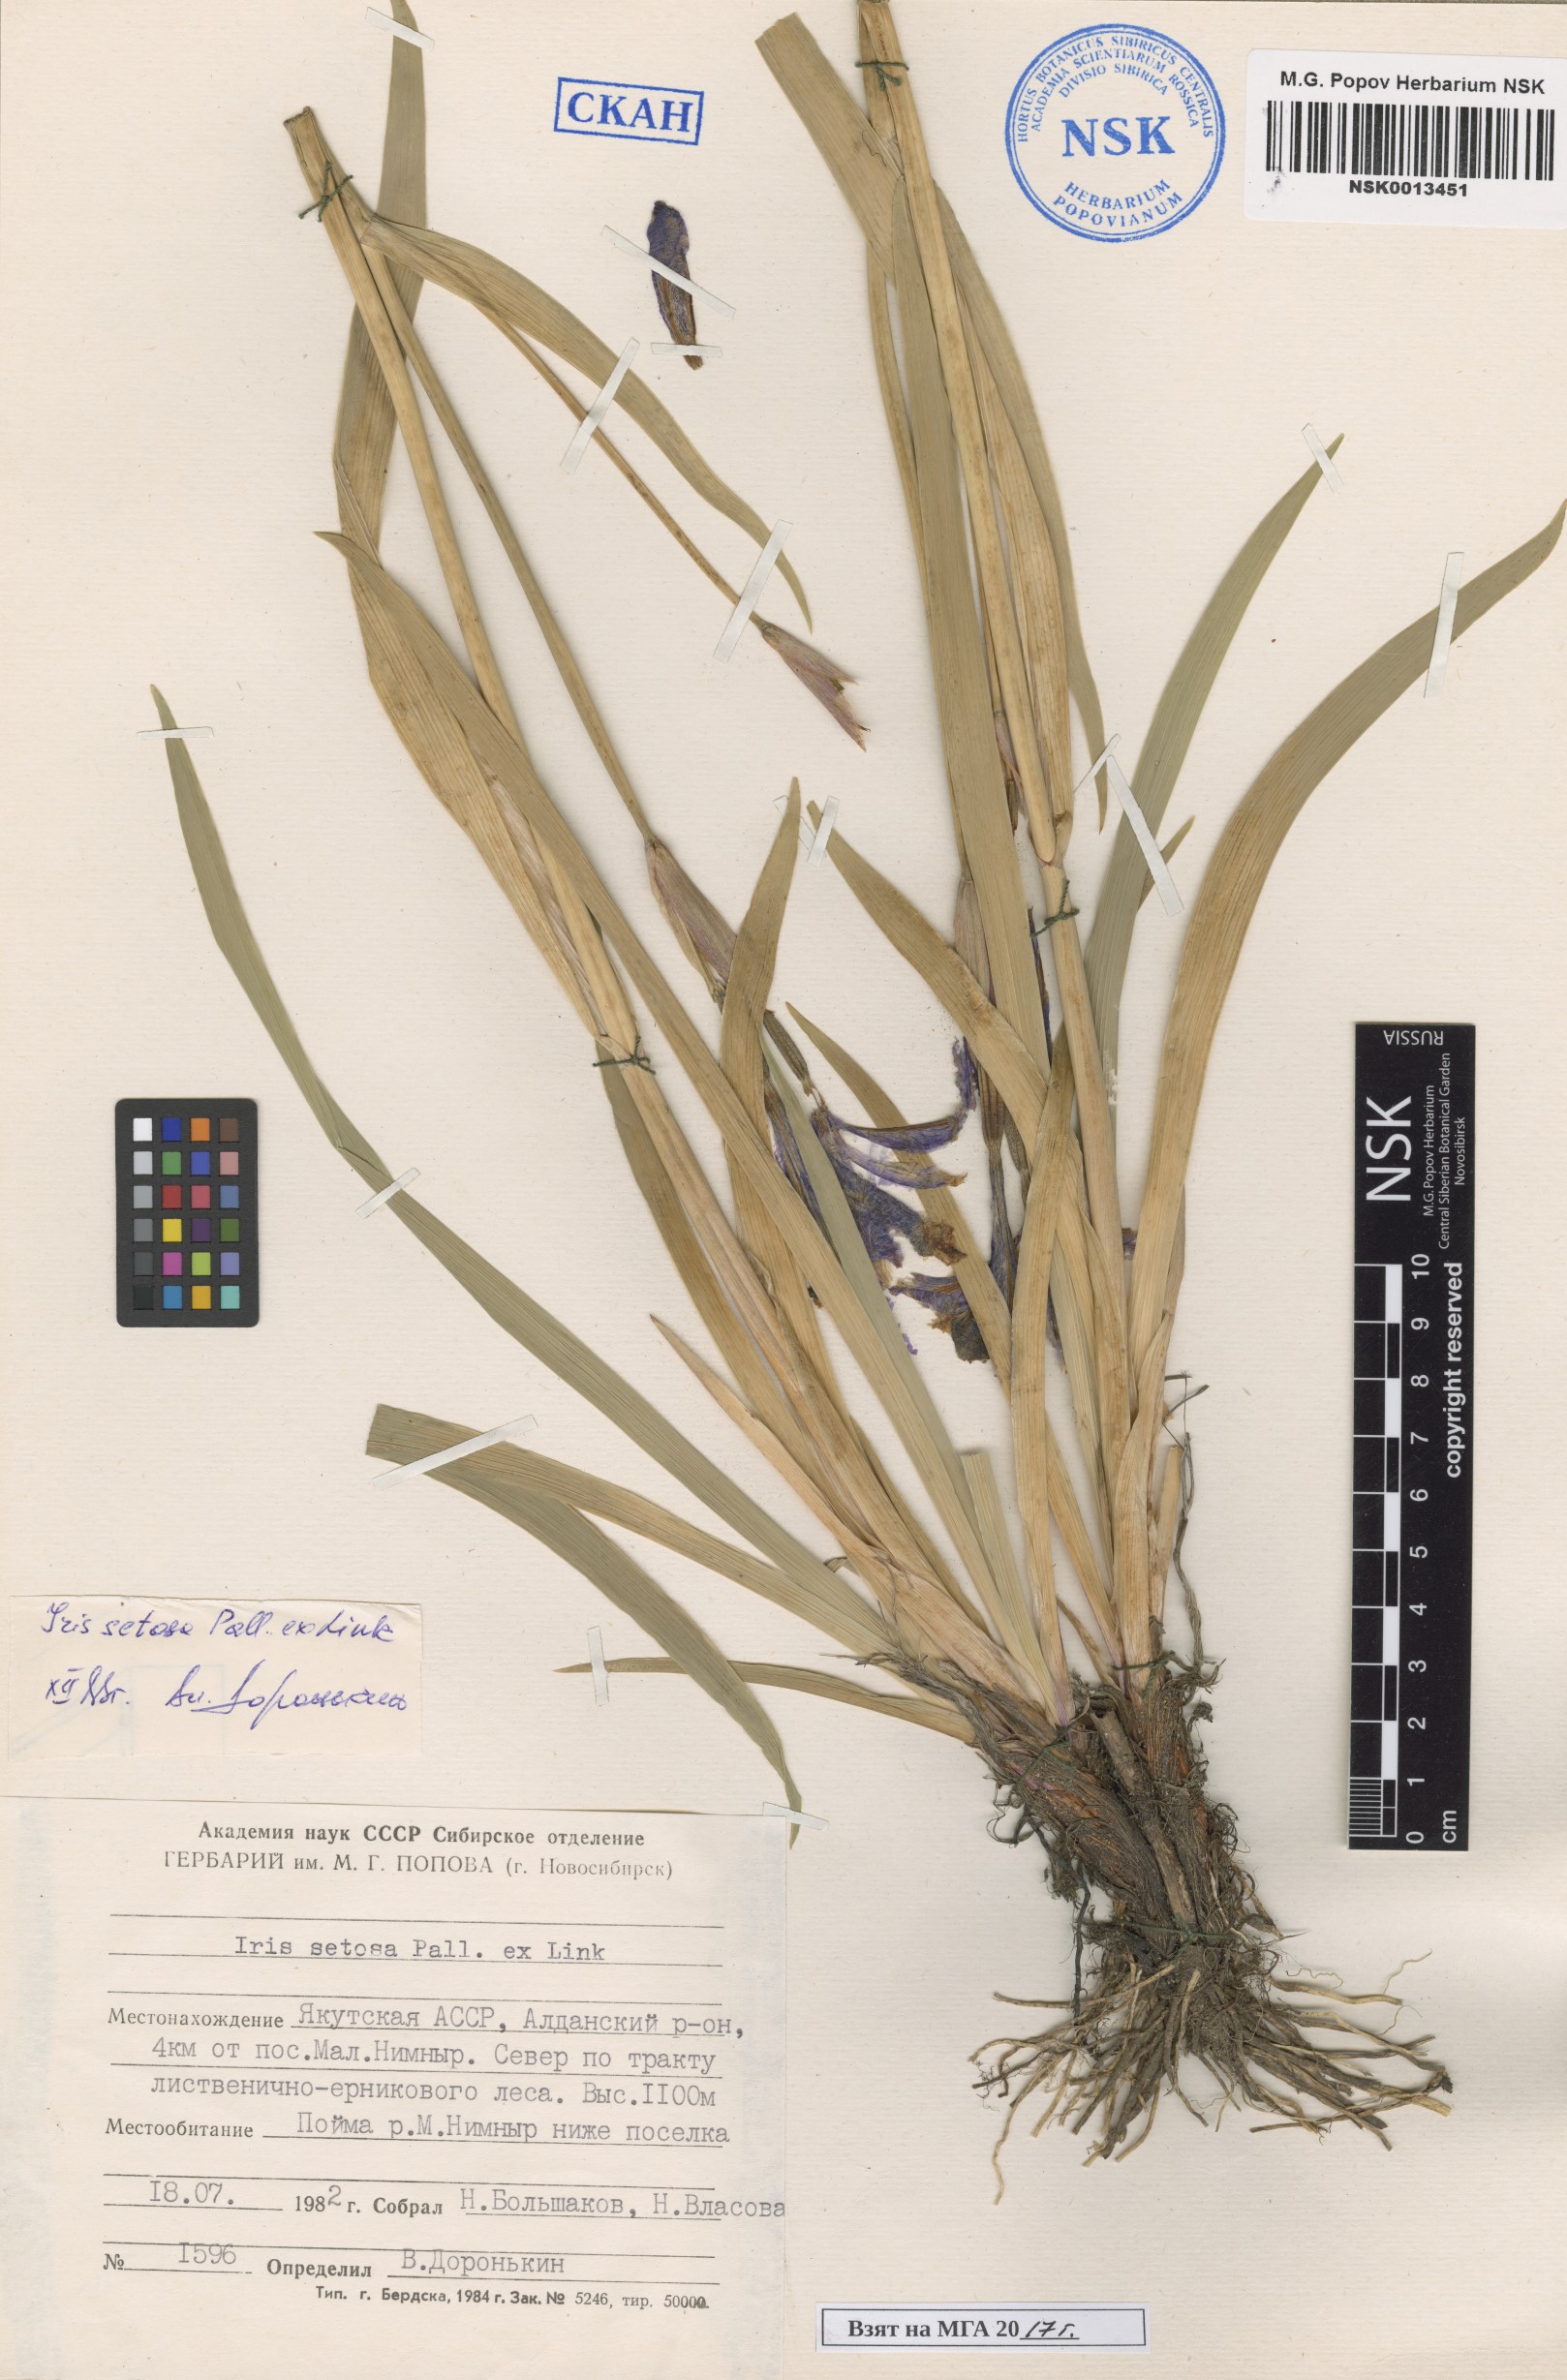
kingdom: Plantae
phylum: Tracheophyta
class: Liliopsida
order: Asparagales
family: Iridaceae
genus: Iris
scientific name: Iris setosa
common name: Arctic blue flag
